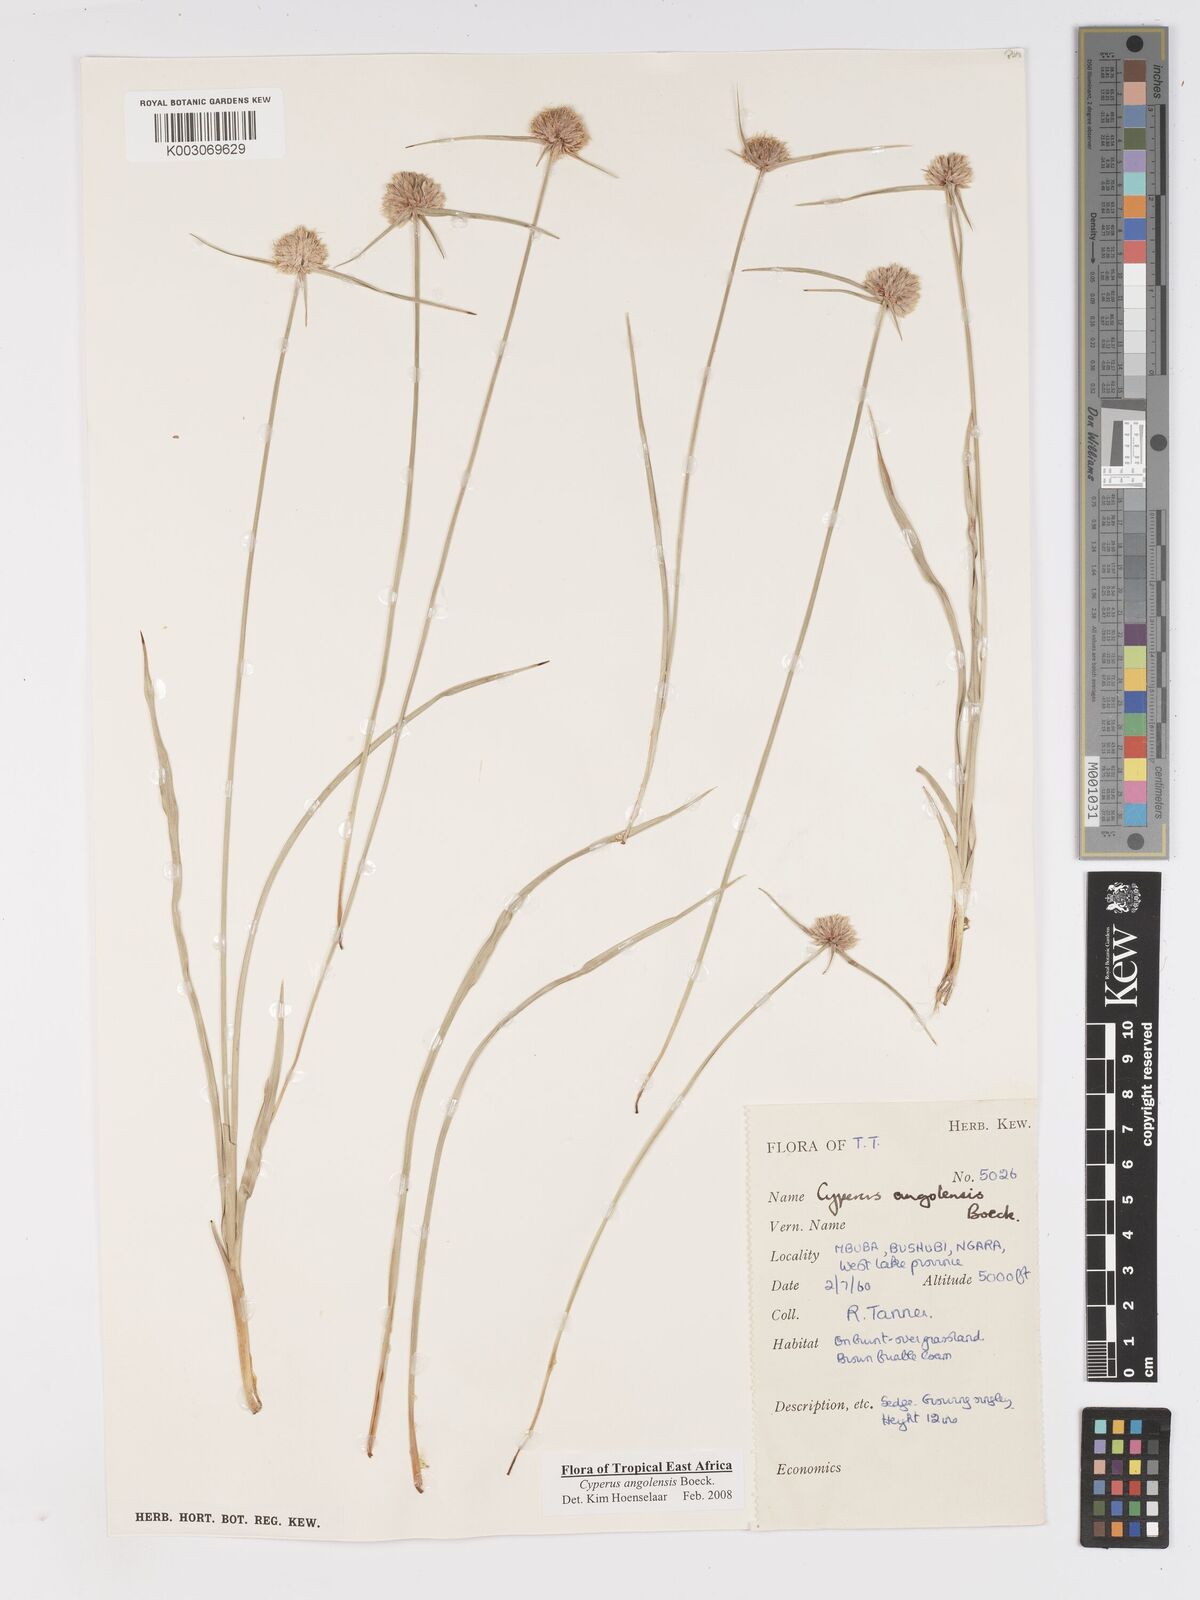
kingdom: Plantae
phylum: Tracheophyta
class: Liliopsida
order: Poales
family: Cyperaceae
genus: Cyperus
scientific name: Cyperus angolensis
